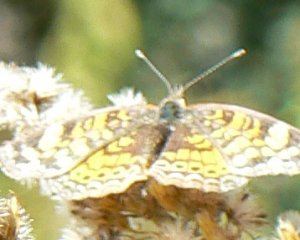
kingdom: Animalia
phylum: Arthropoda
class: Insecta
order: Lepidoptera
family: Nymphalidae
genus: Phyciodes
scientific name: Phyciodes tharos
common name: Pearl Crescent
